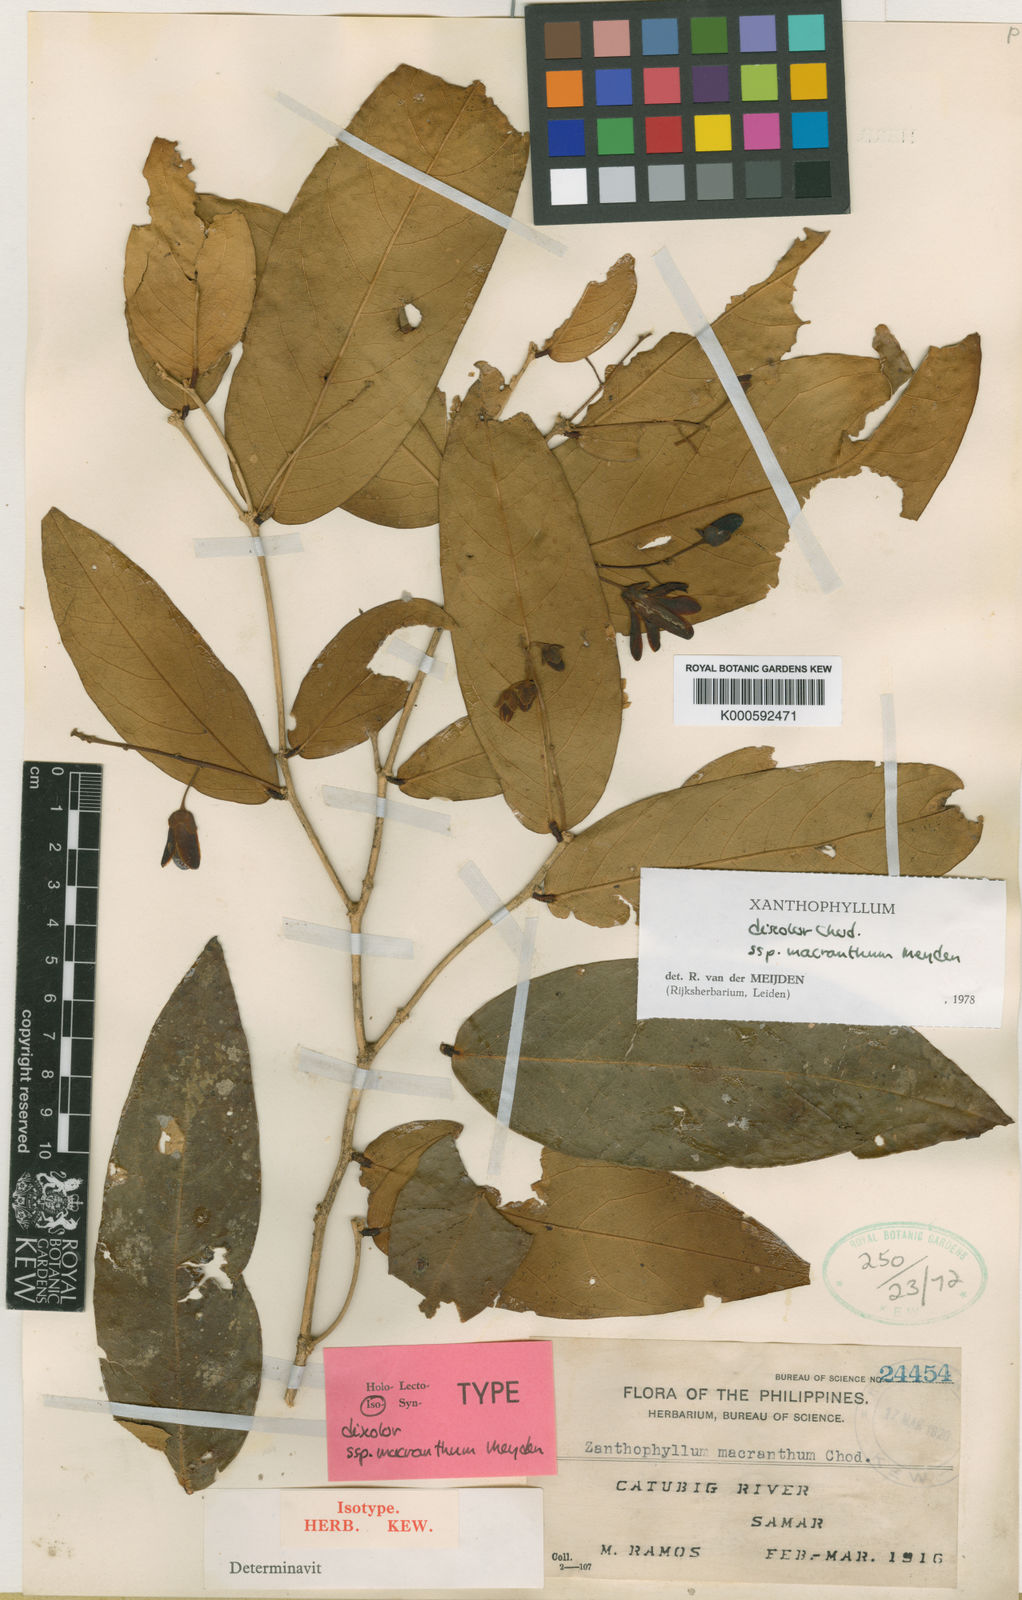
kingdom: Plantae
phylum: Tracheophyta
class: Magnoliopsida
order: Fabales
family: Polygalaceae
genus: Xanthophyllum
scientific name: Xanthophyllum discolor
